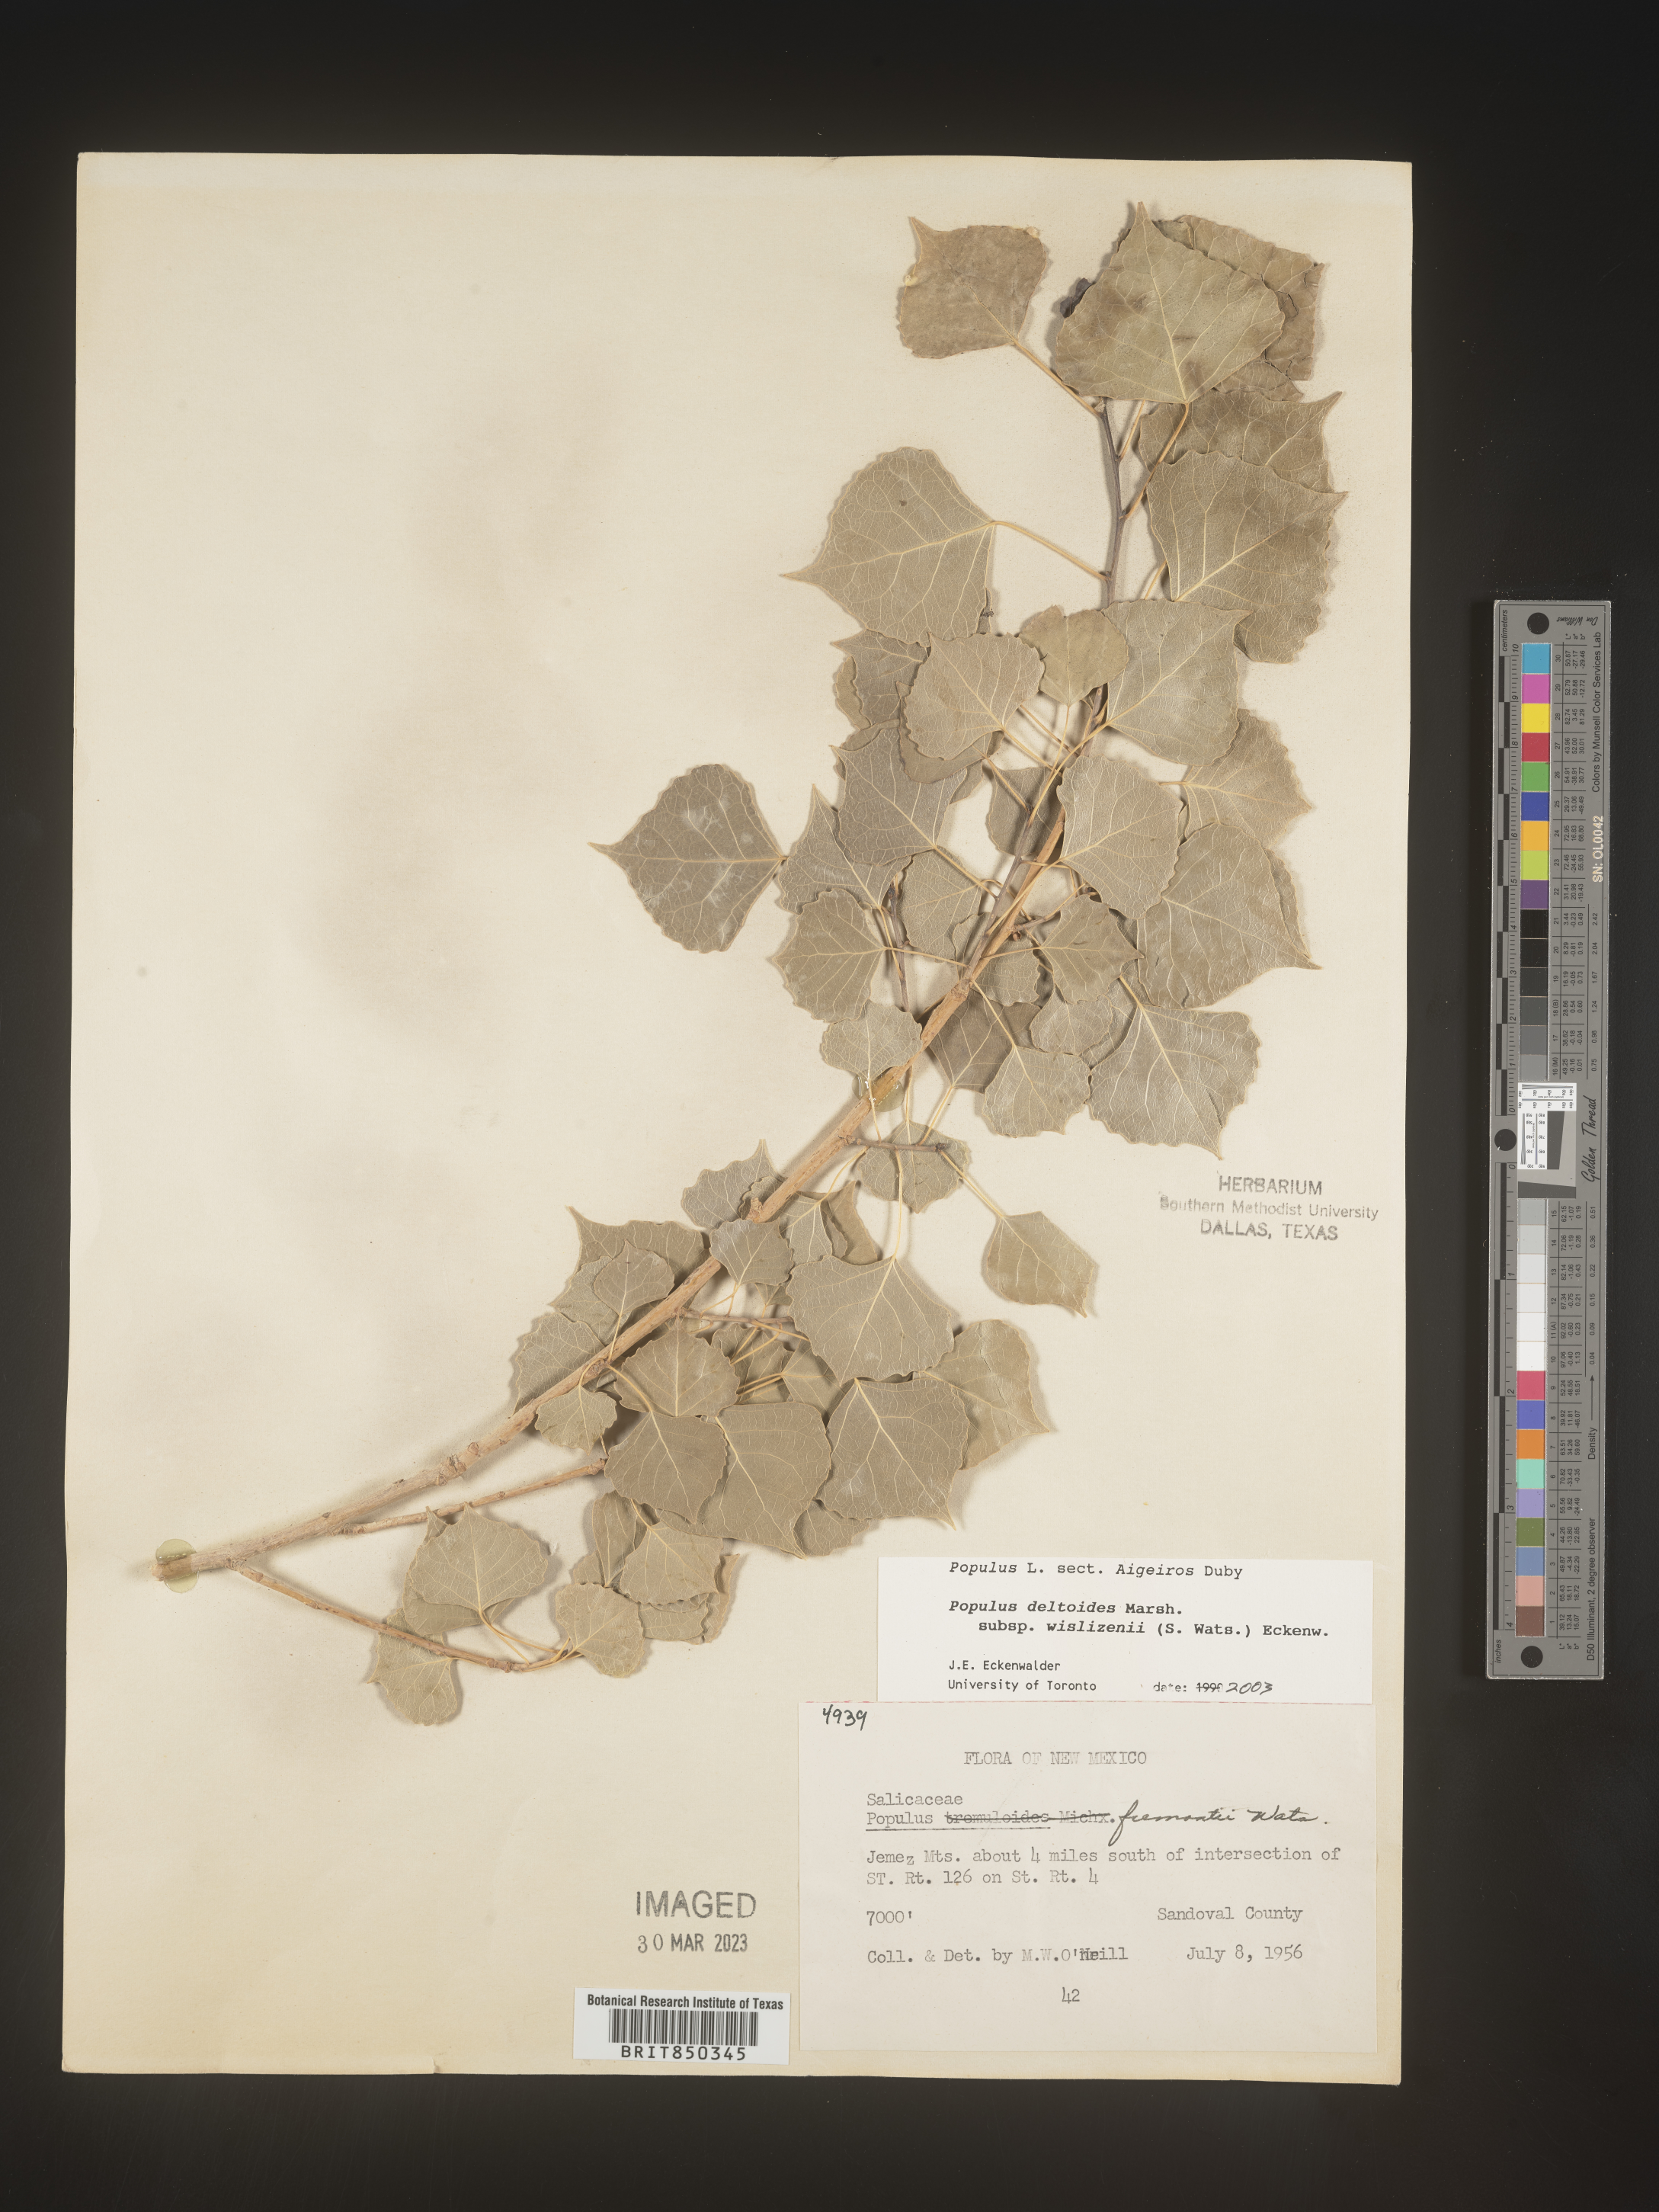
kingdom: Plantae
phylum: Tracheophyta
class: Magnoliopsida
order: Malpighiales
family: Salicaceae
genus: Populus
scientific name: Populus deltoides
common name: Eastern cottonwood
